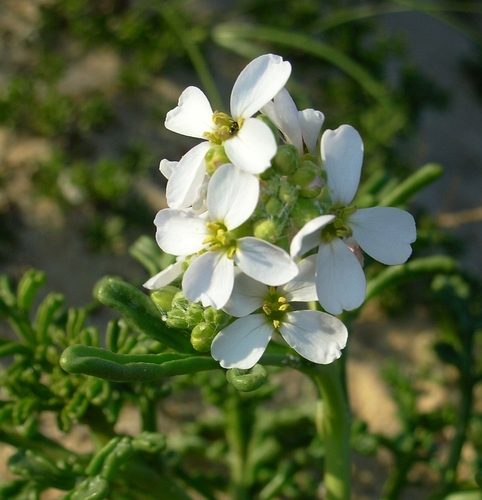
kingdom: Plantae
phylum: Tracheophyta
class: Magnoliopsida
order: Brassicales
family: Brassicaceae
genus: Cakile
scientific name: Cakile maritima
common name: Sea rocket
